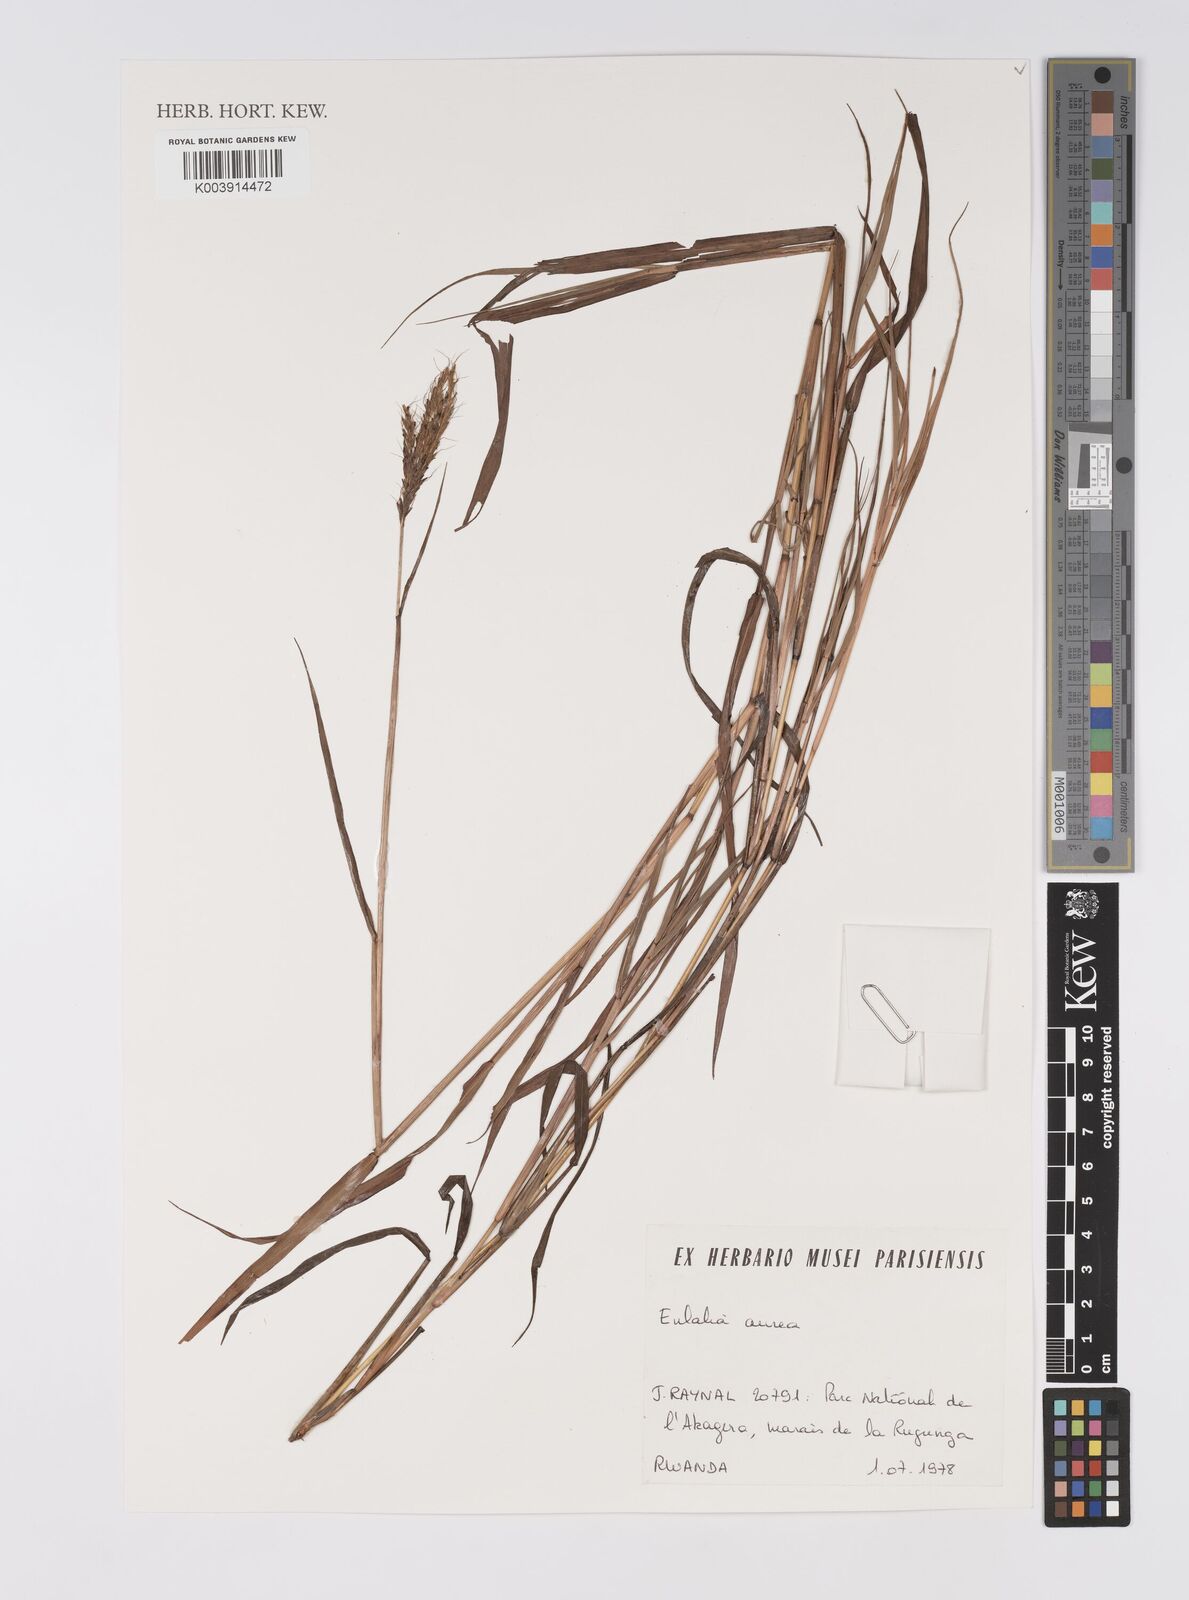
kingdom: Plantae
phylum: Tracheophyta
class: Liliopsida
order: Poales
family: Poaceae
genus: Eulalia
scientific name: Eulalia aurea
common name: Silky browntop
